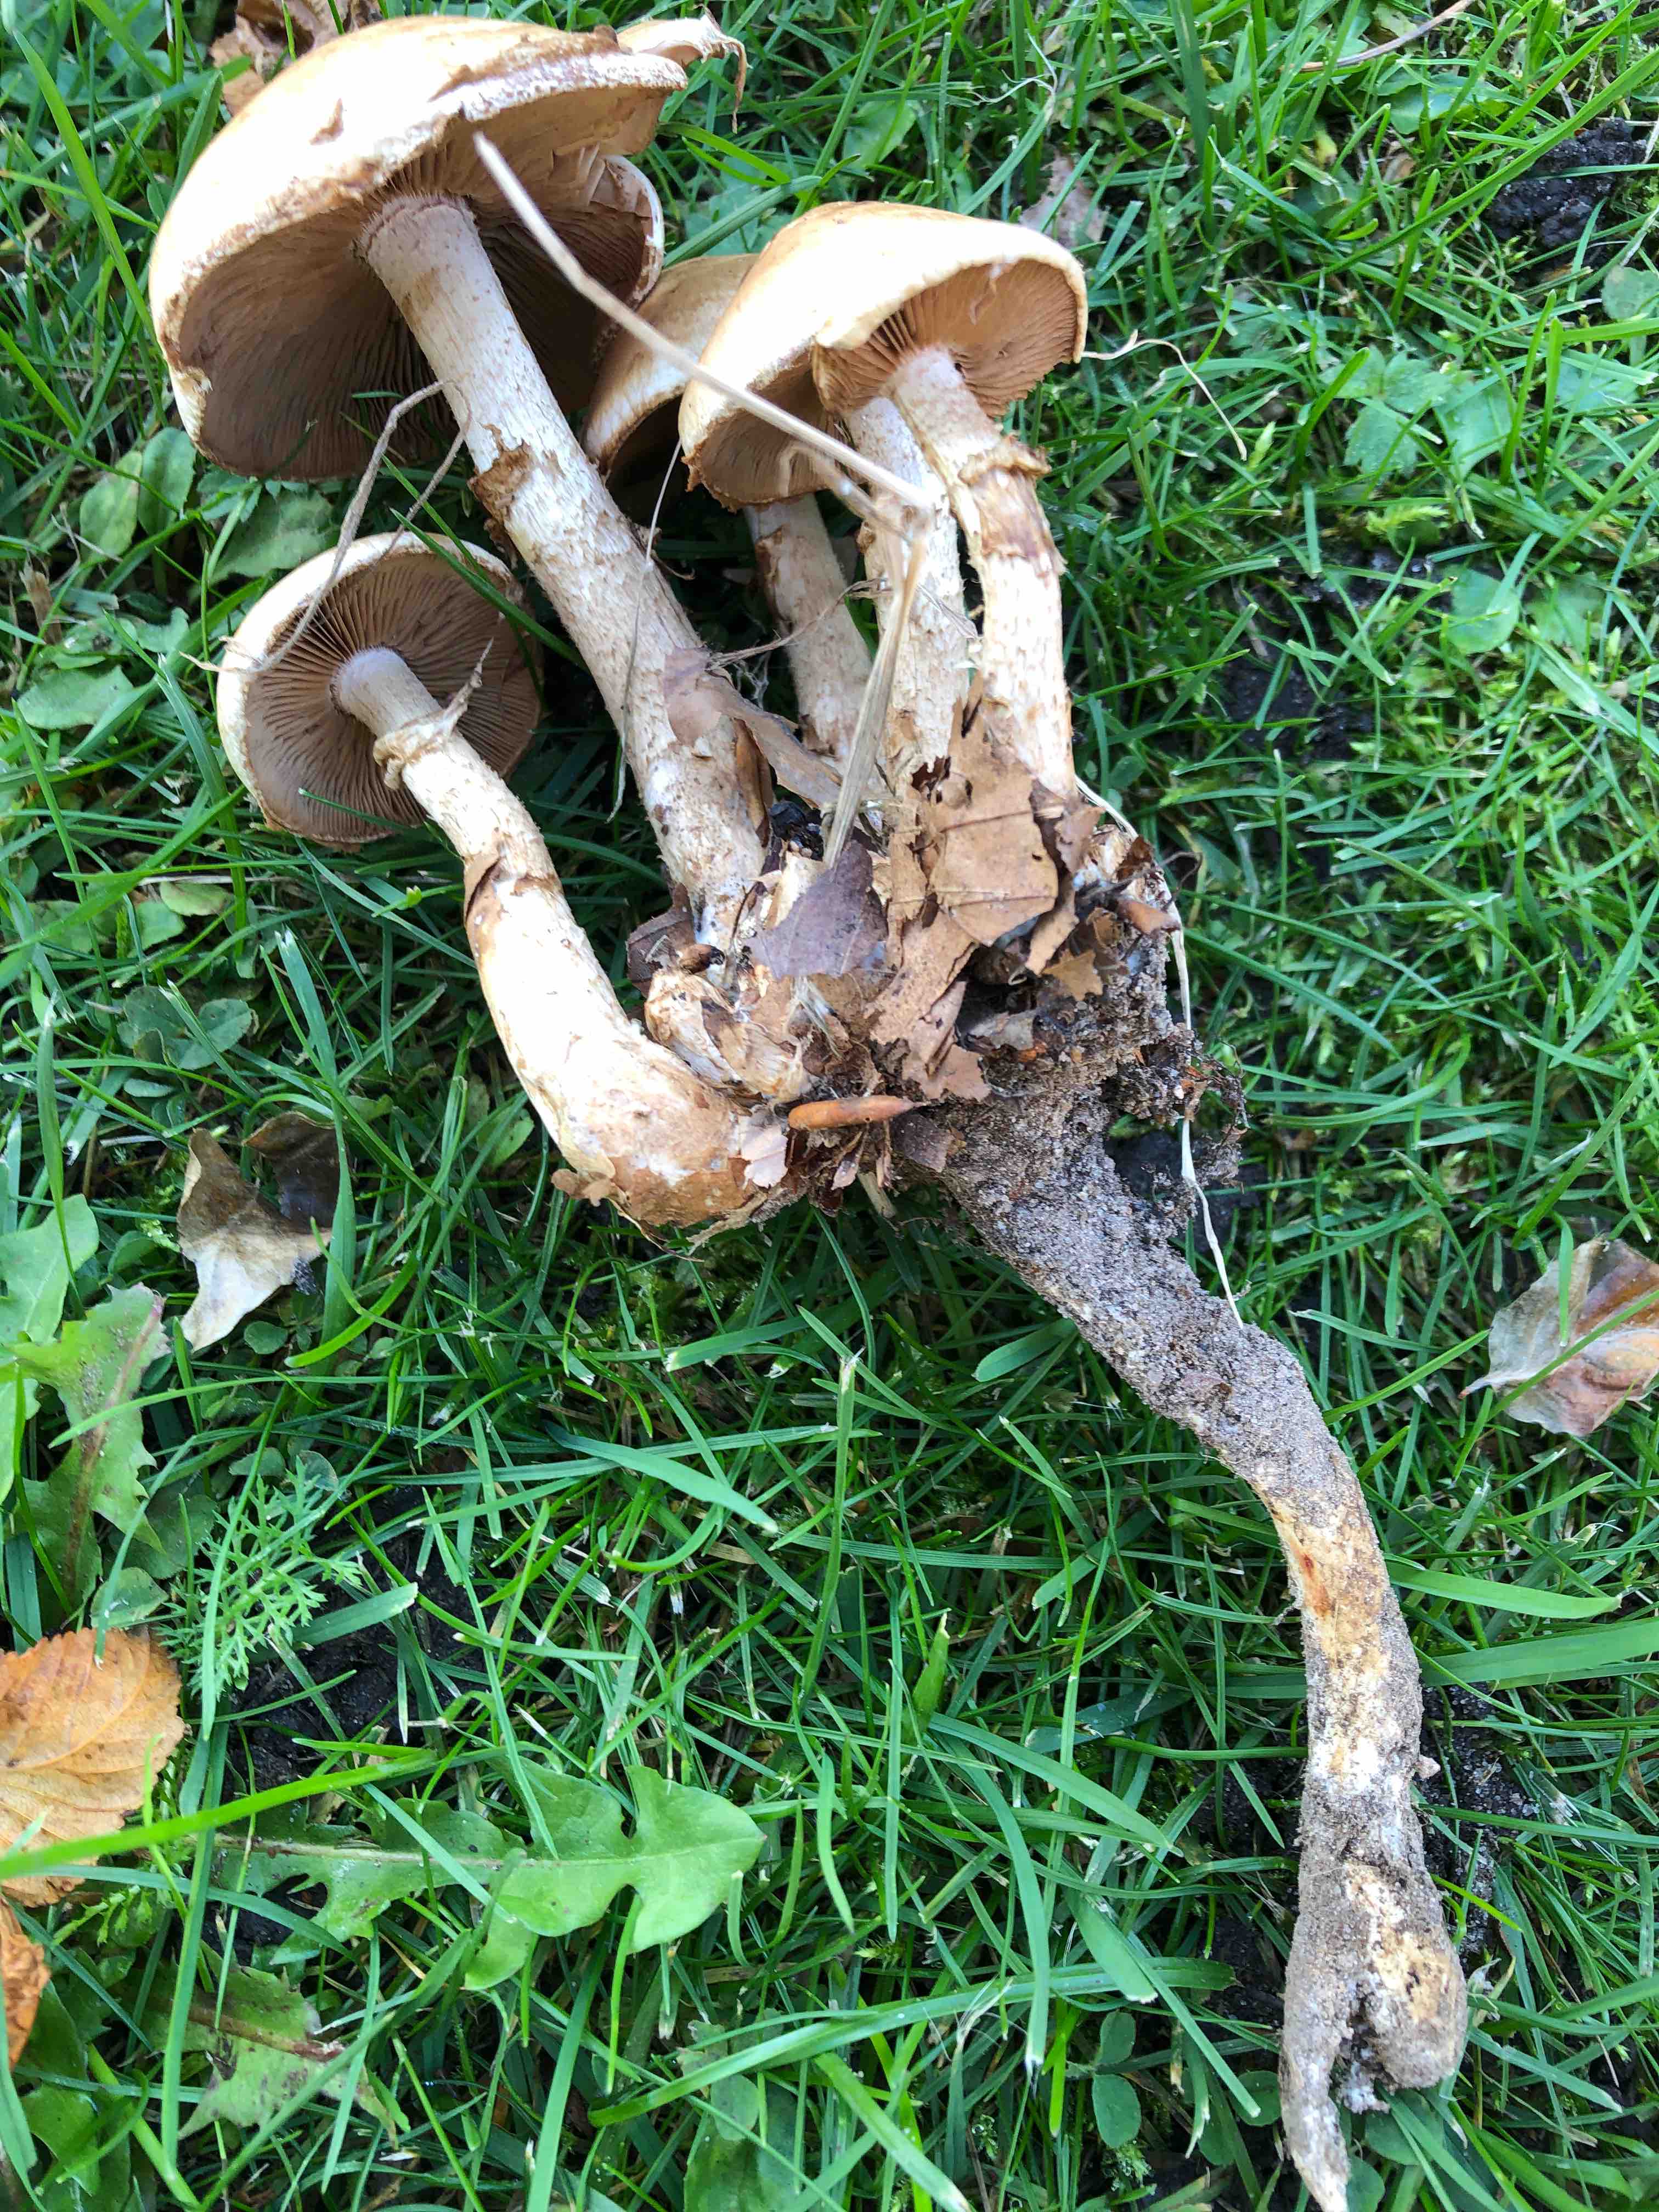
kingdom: Fungi
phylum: Basidiomycota
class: Agaricomycetes
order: Agaricales
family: Hymenogastraceae
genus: Hebeloma
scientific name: Hebeloma radicosum
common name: pælerods-tåreblad
